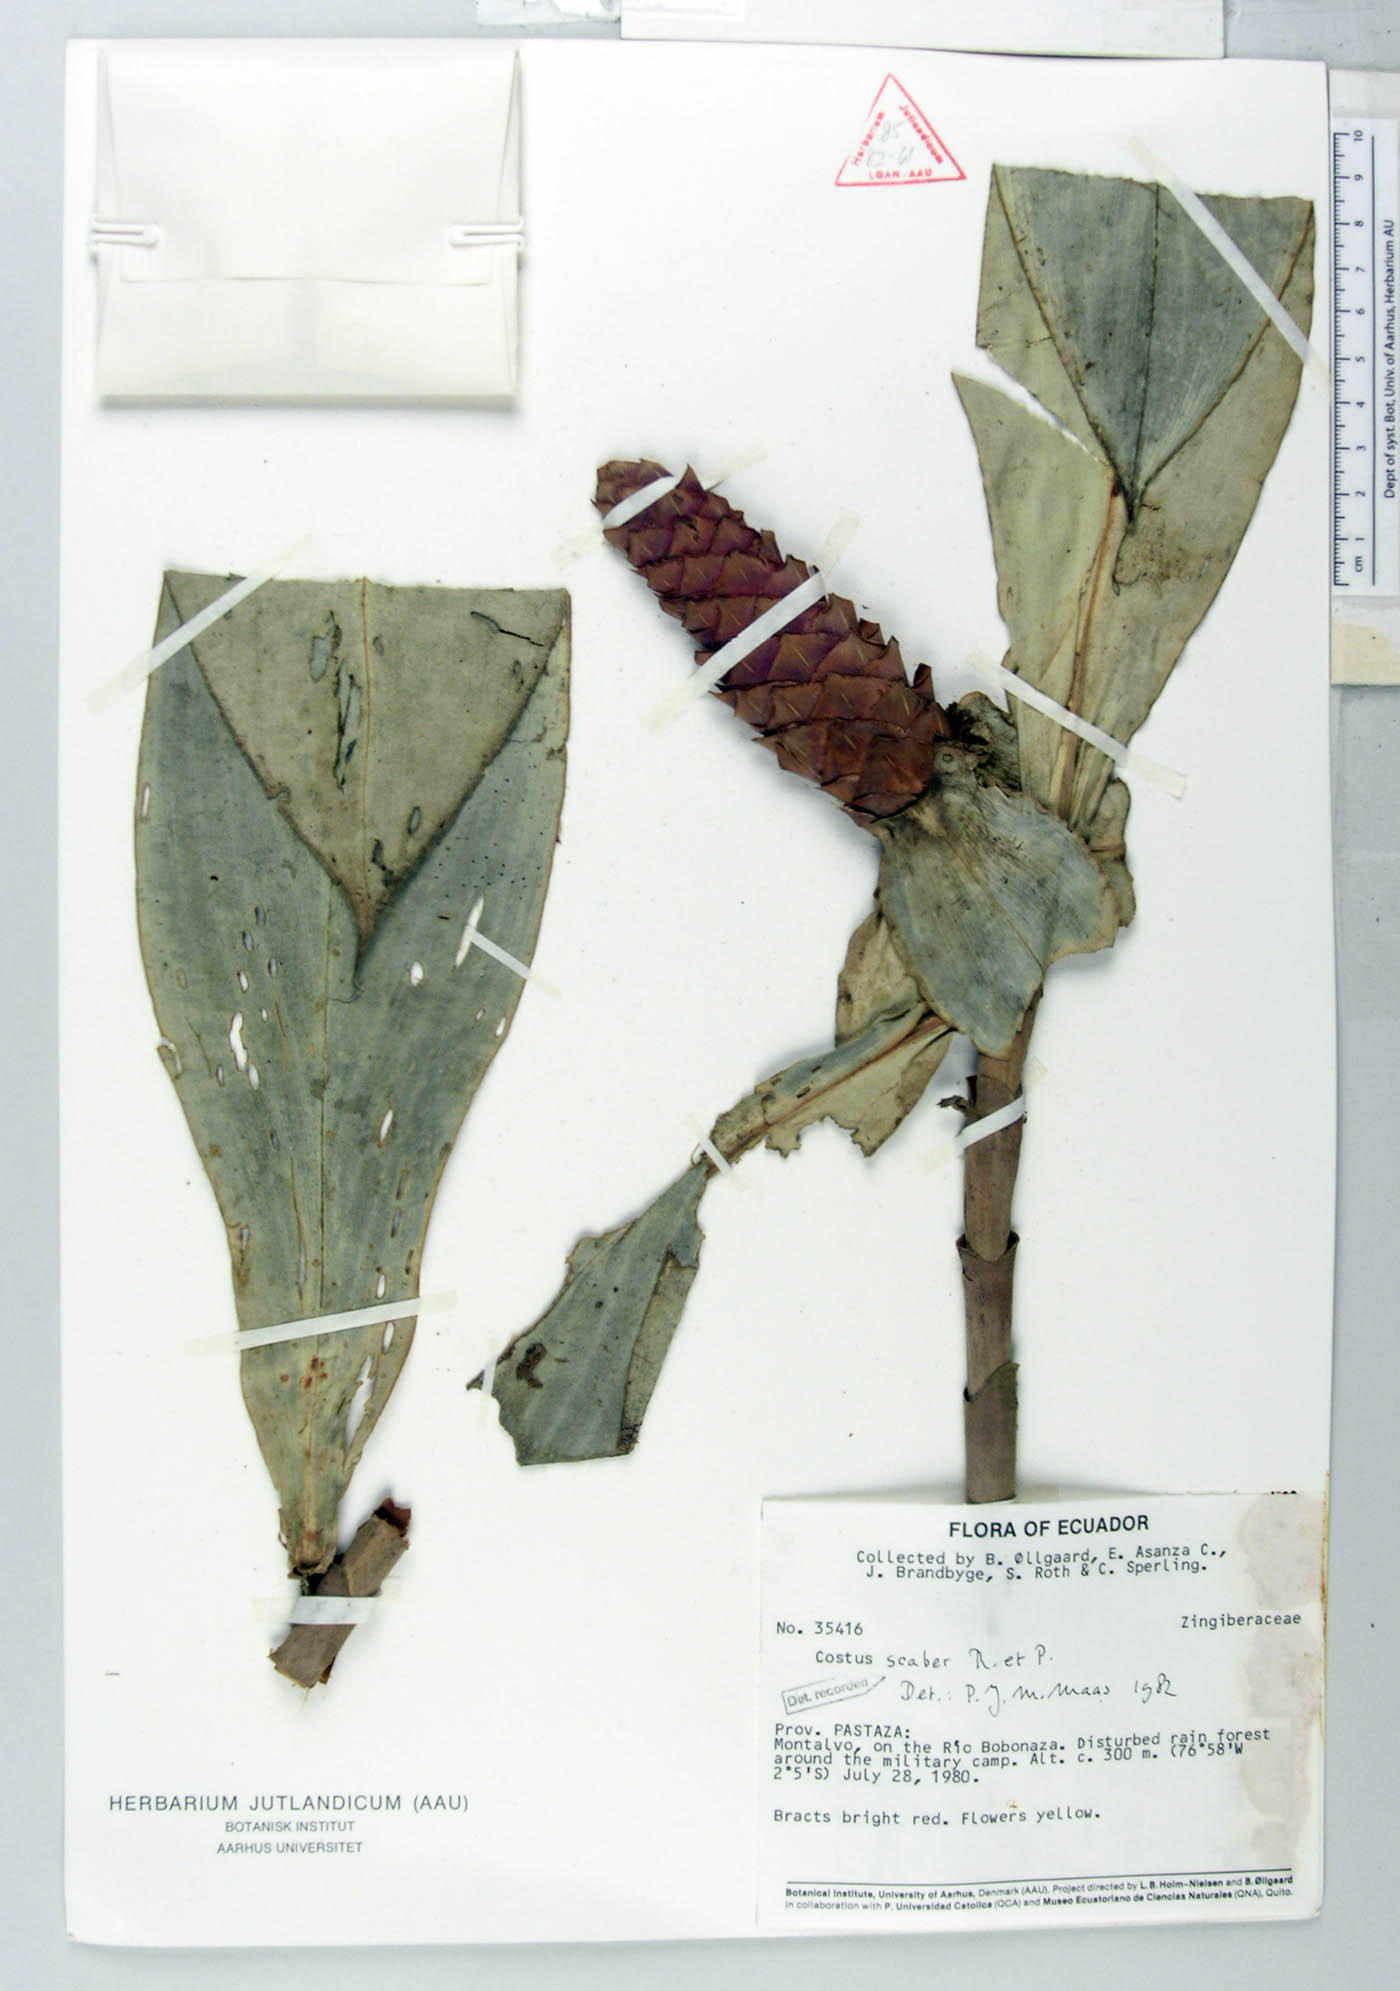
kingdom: Plantae
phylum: Tracheophyta
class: Liliopsida
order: Zingiberales
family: Costaceae
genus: Costus
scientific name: Costus scaber
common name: Spiral head ginger
